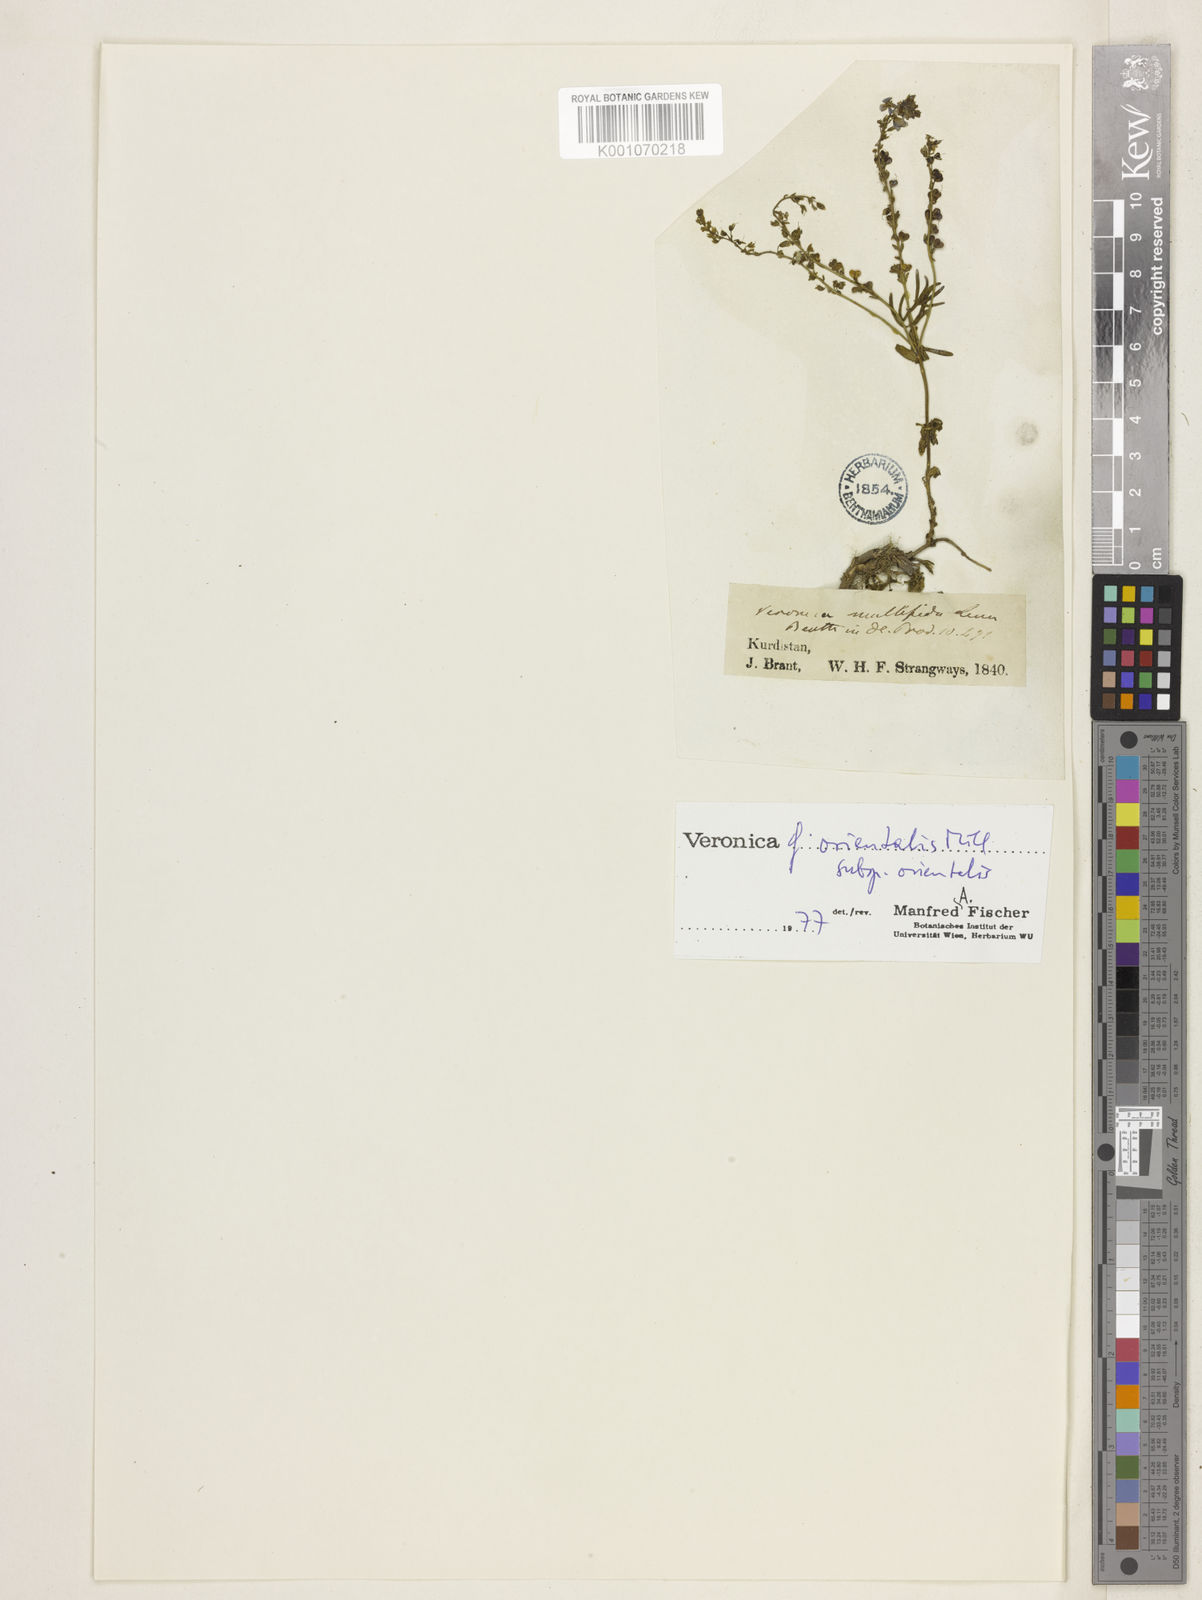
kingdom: Plantae
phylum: Tracheophyta
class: Magnoliopsida
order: Lamiales
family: Plantaginaceae
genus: Veronica
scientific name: Veronica orientalis
